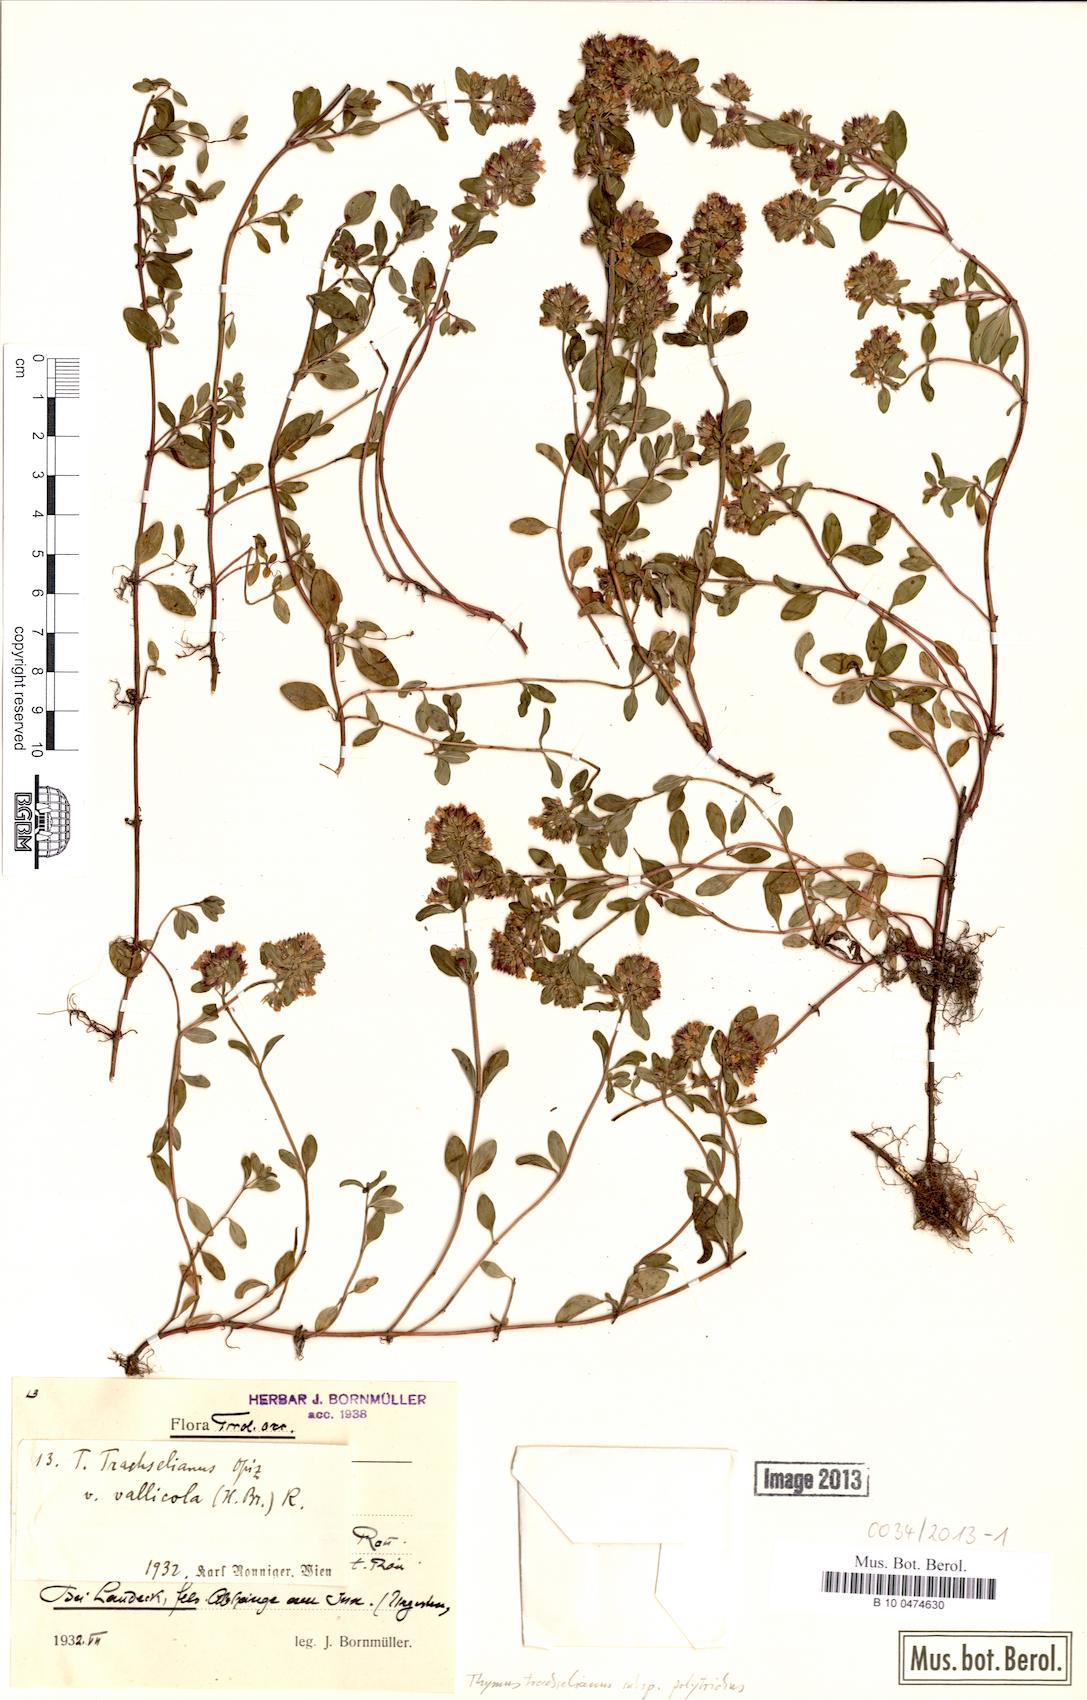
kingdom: Plantae
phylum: Tracheophyta
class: Magnoliopsida
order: Lamiales
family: Lamiaceae
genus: Thymus
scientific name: Thymus praecox
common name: Wild thyme
